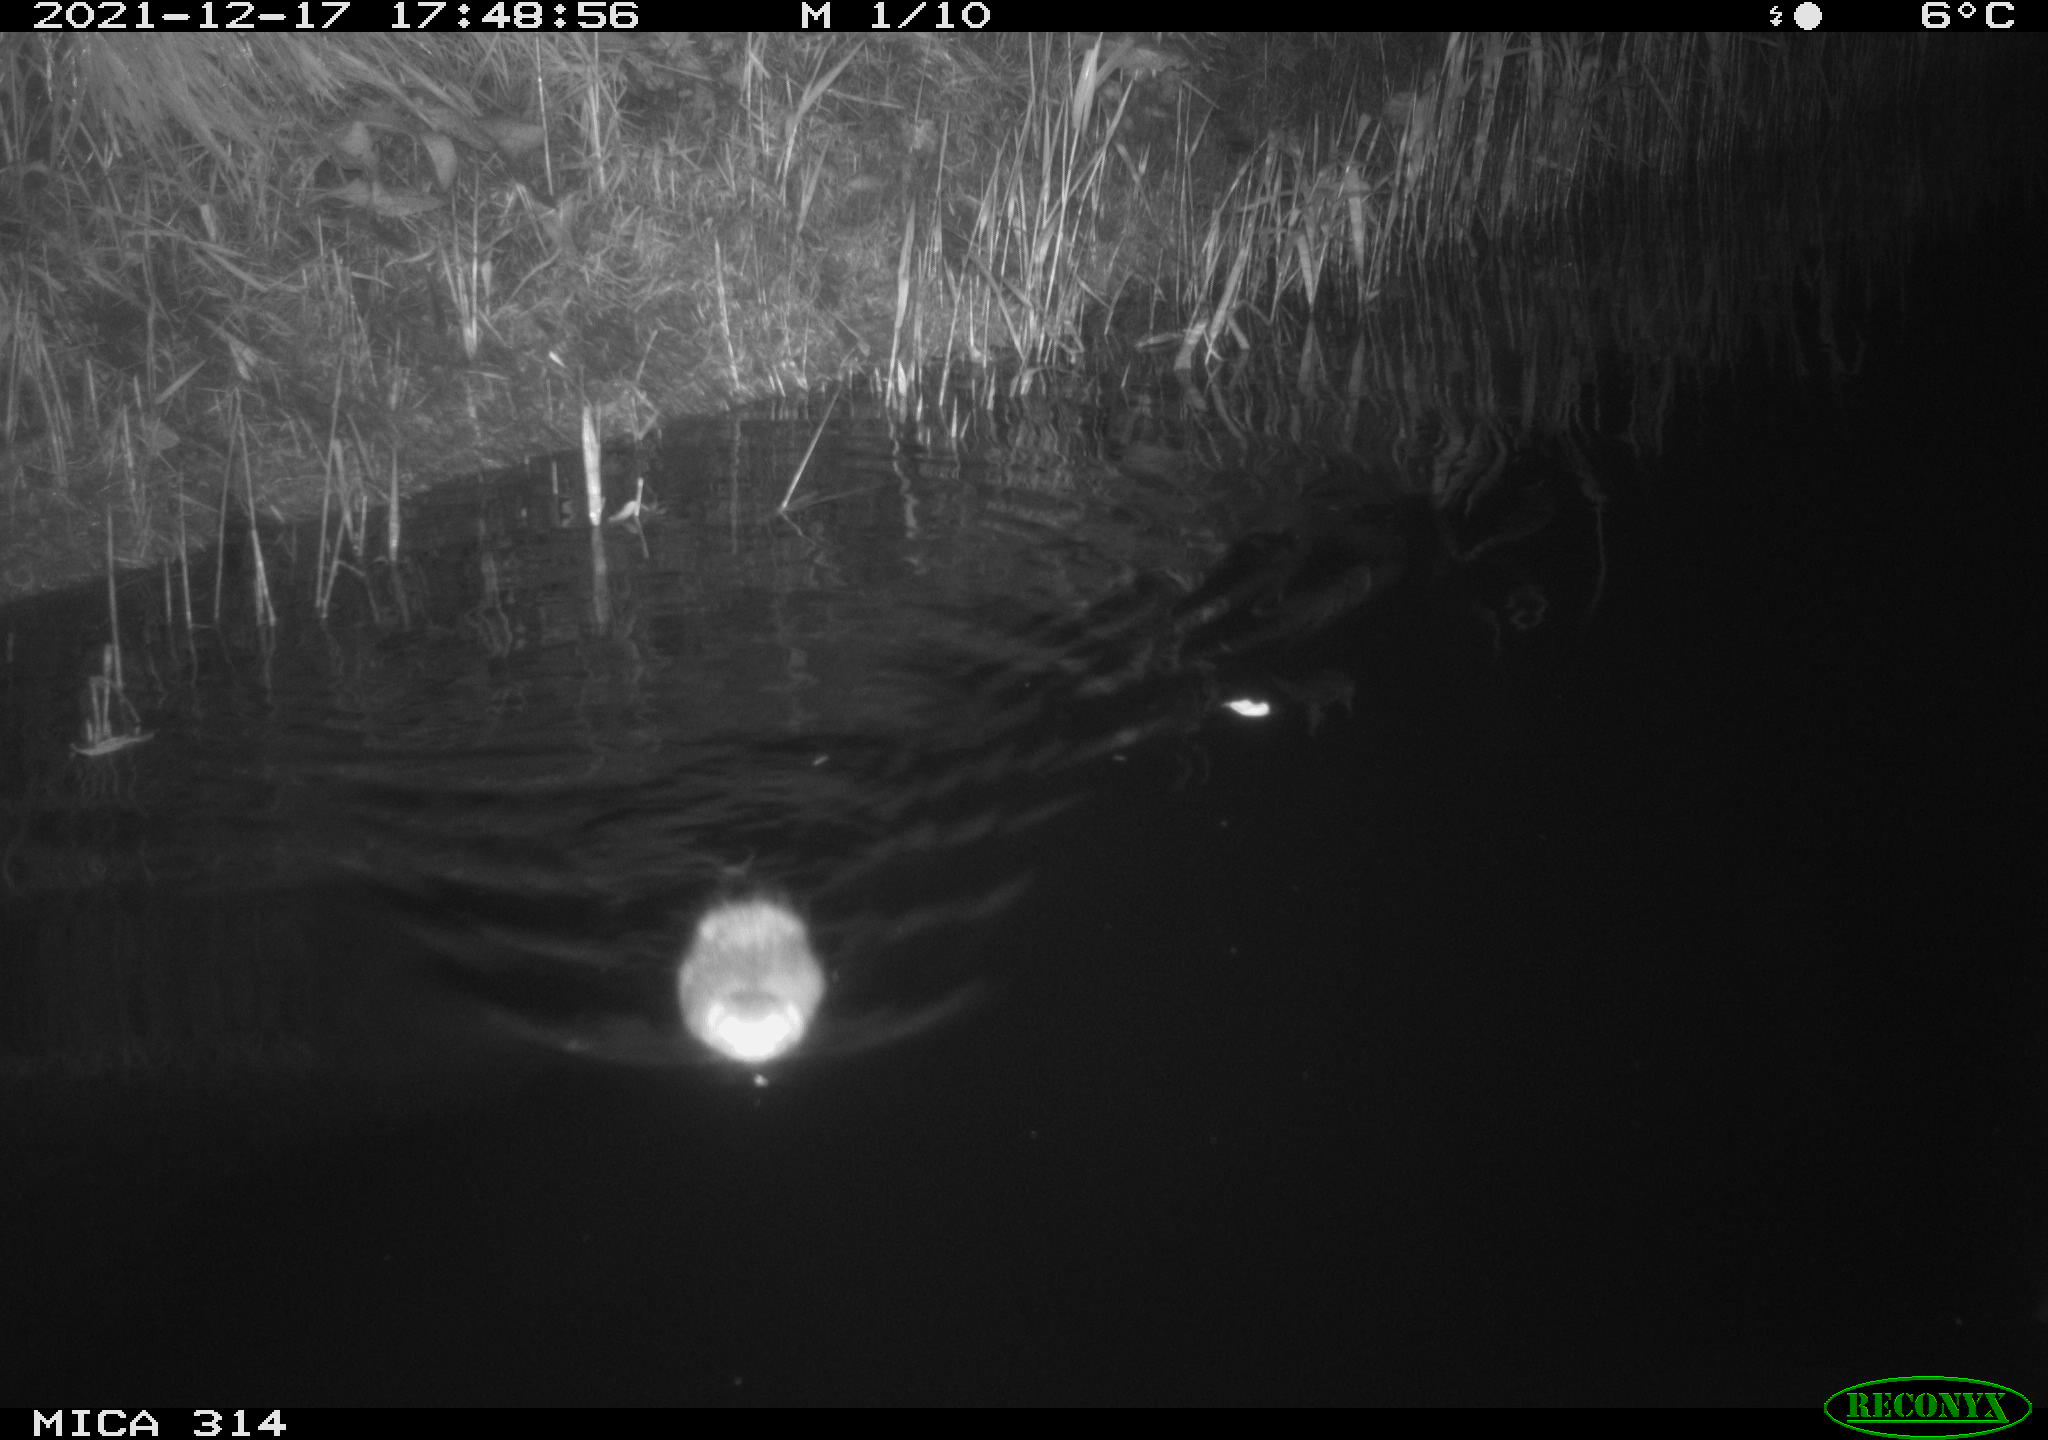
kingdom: Animalia
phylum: Chordata
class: Mammalia
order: Rodentia
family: Cricetidae
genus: Ondatra
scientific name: Ondatra zibethicus
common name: Muskrat
